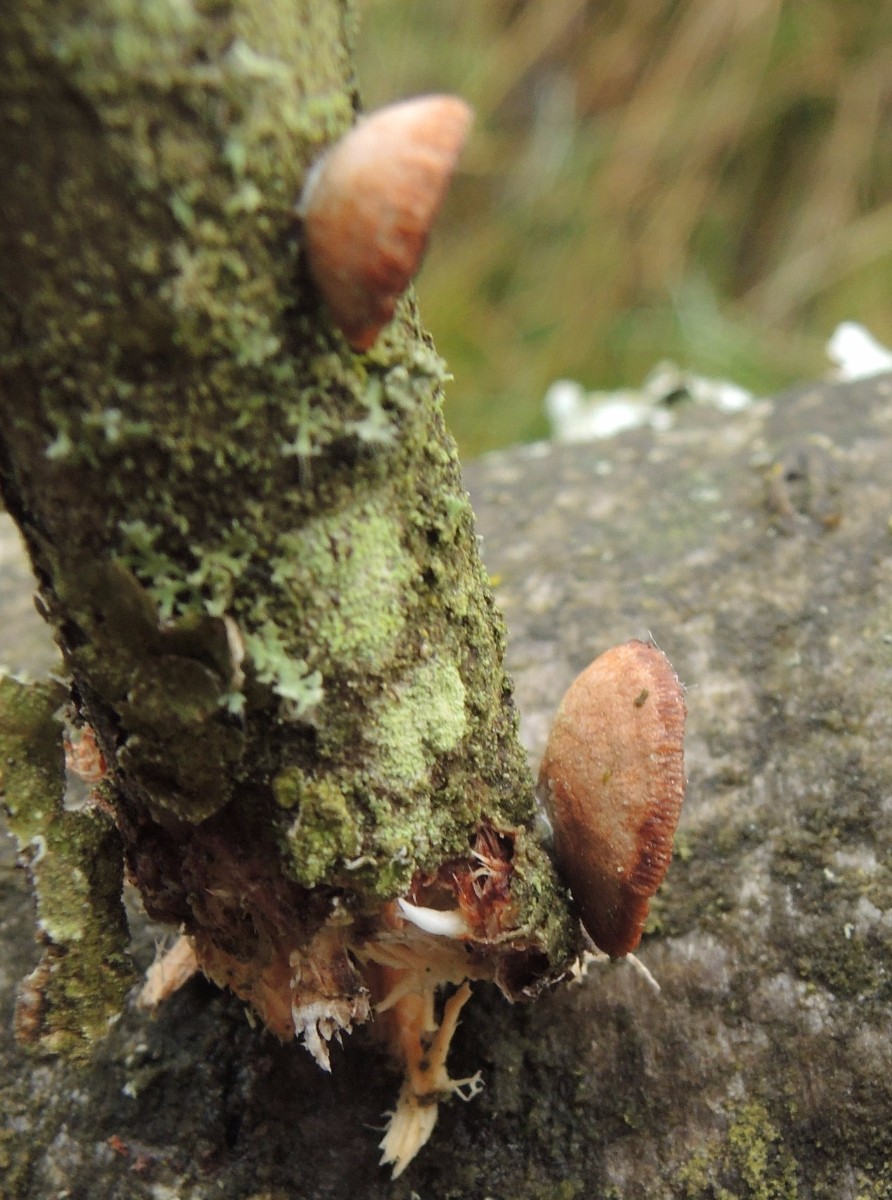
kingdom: Fungi
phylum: Basidiomycota
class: Agaricomycetes
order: Agaricales
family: Strophariaceae
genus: Deconica
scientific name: Deconica horizontalis
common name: ved-stråhat
